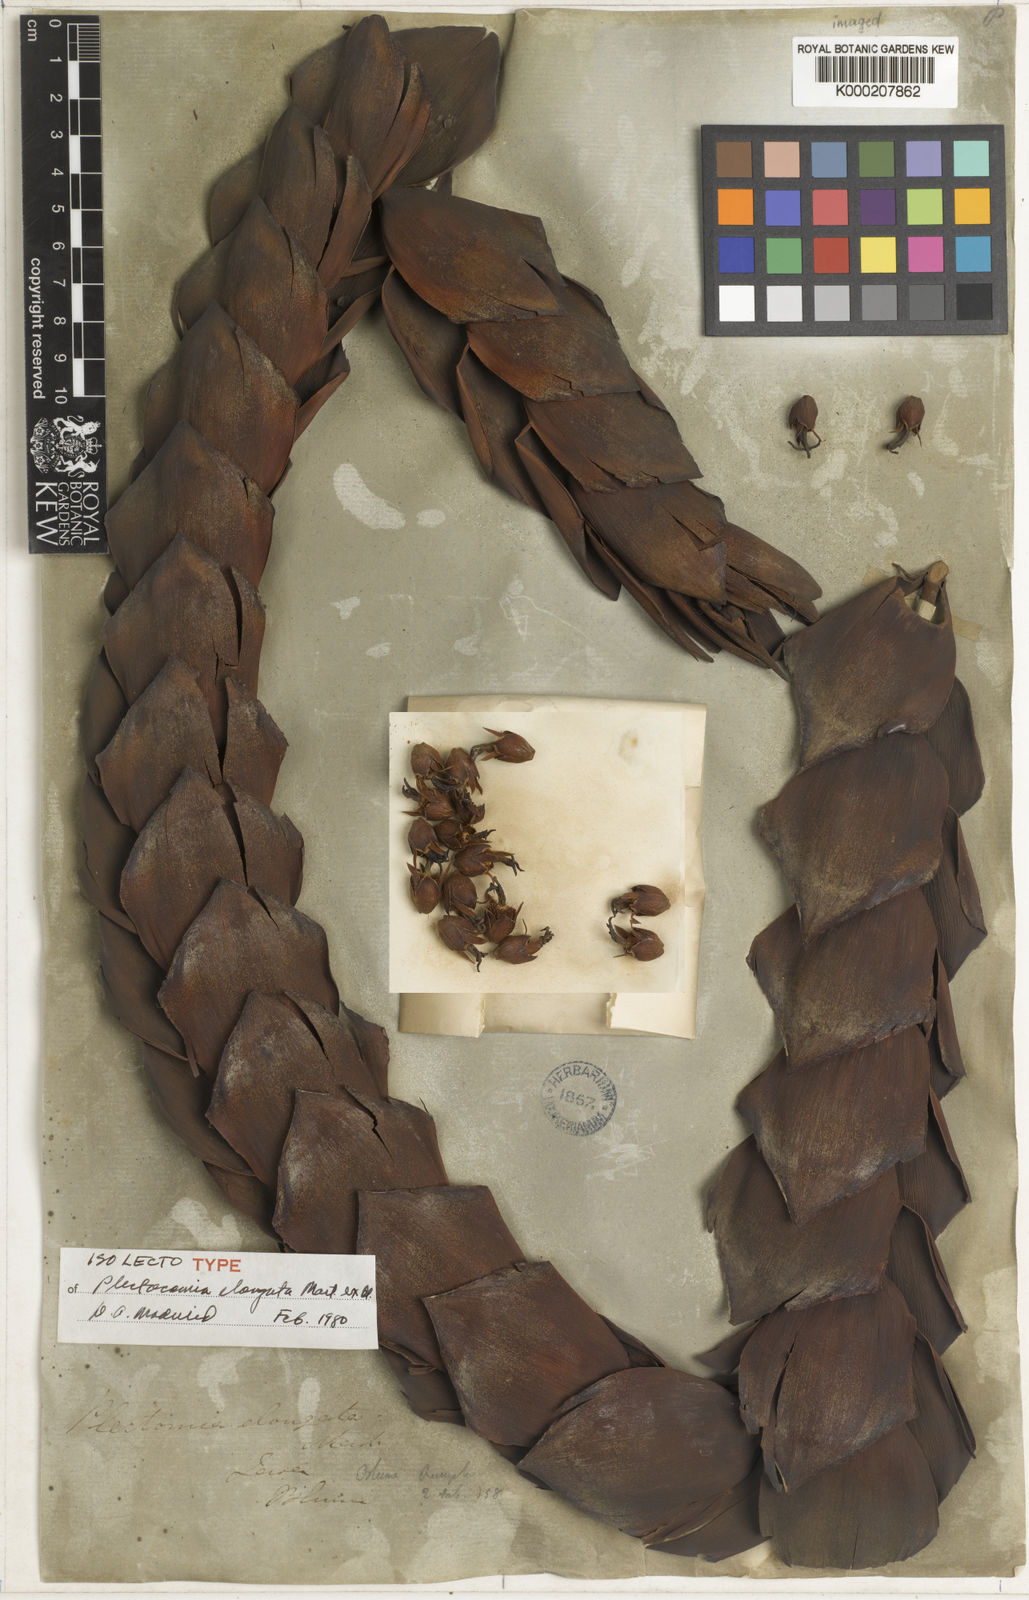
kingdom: Plantae
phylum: Tracheophyta
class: Liliopsida
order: Arecales
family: Arecaceae
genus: Plectocomia
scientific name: Plectocomia elongata
